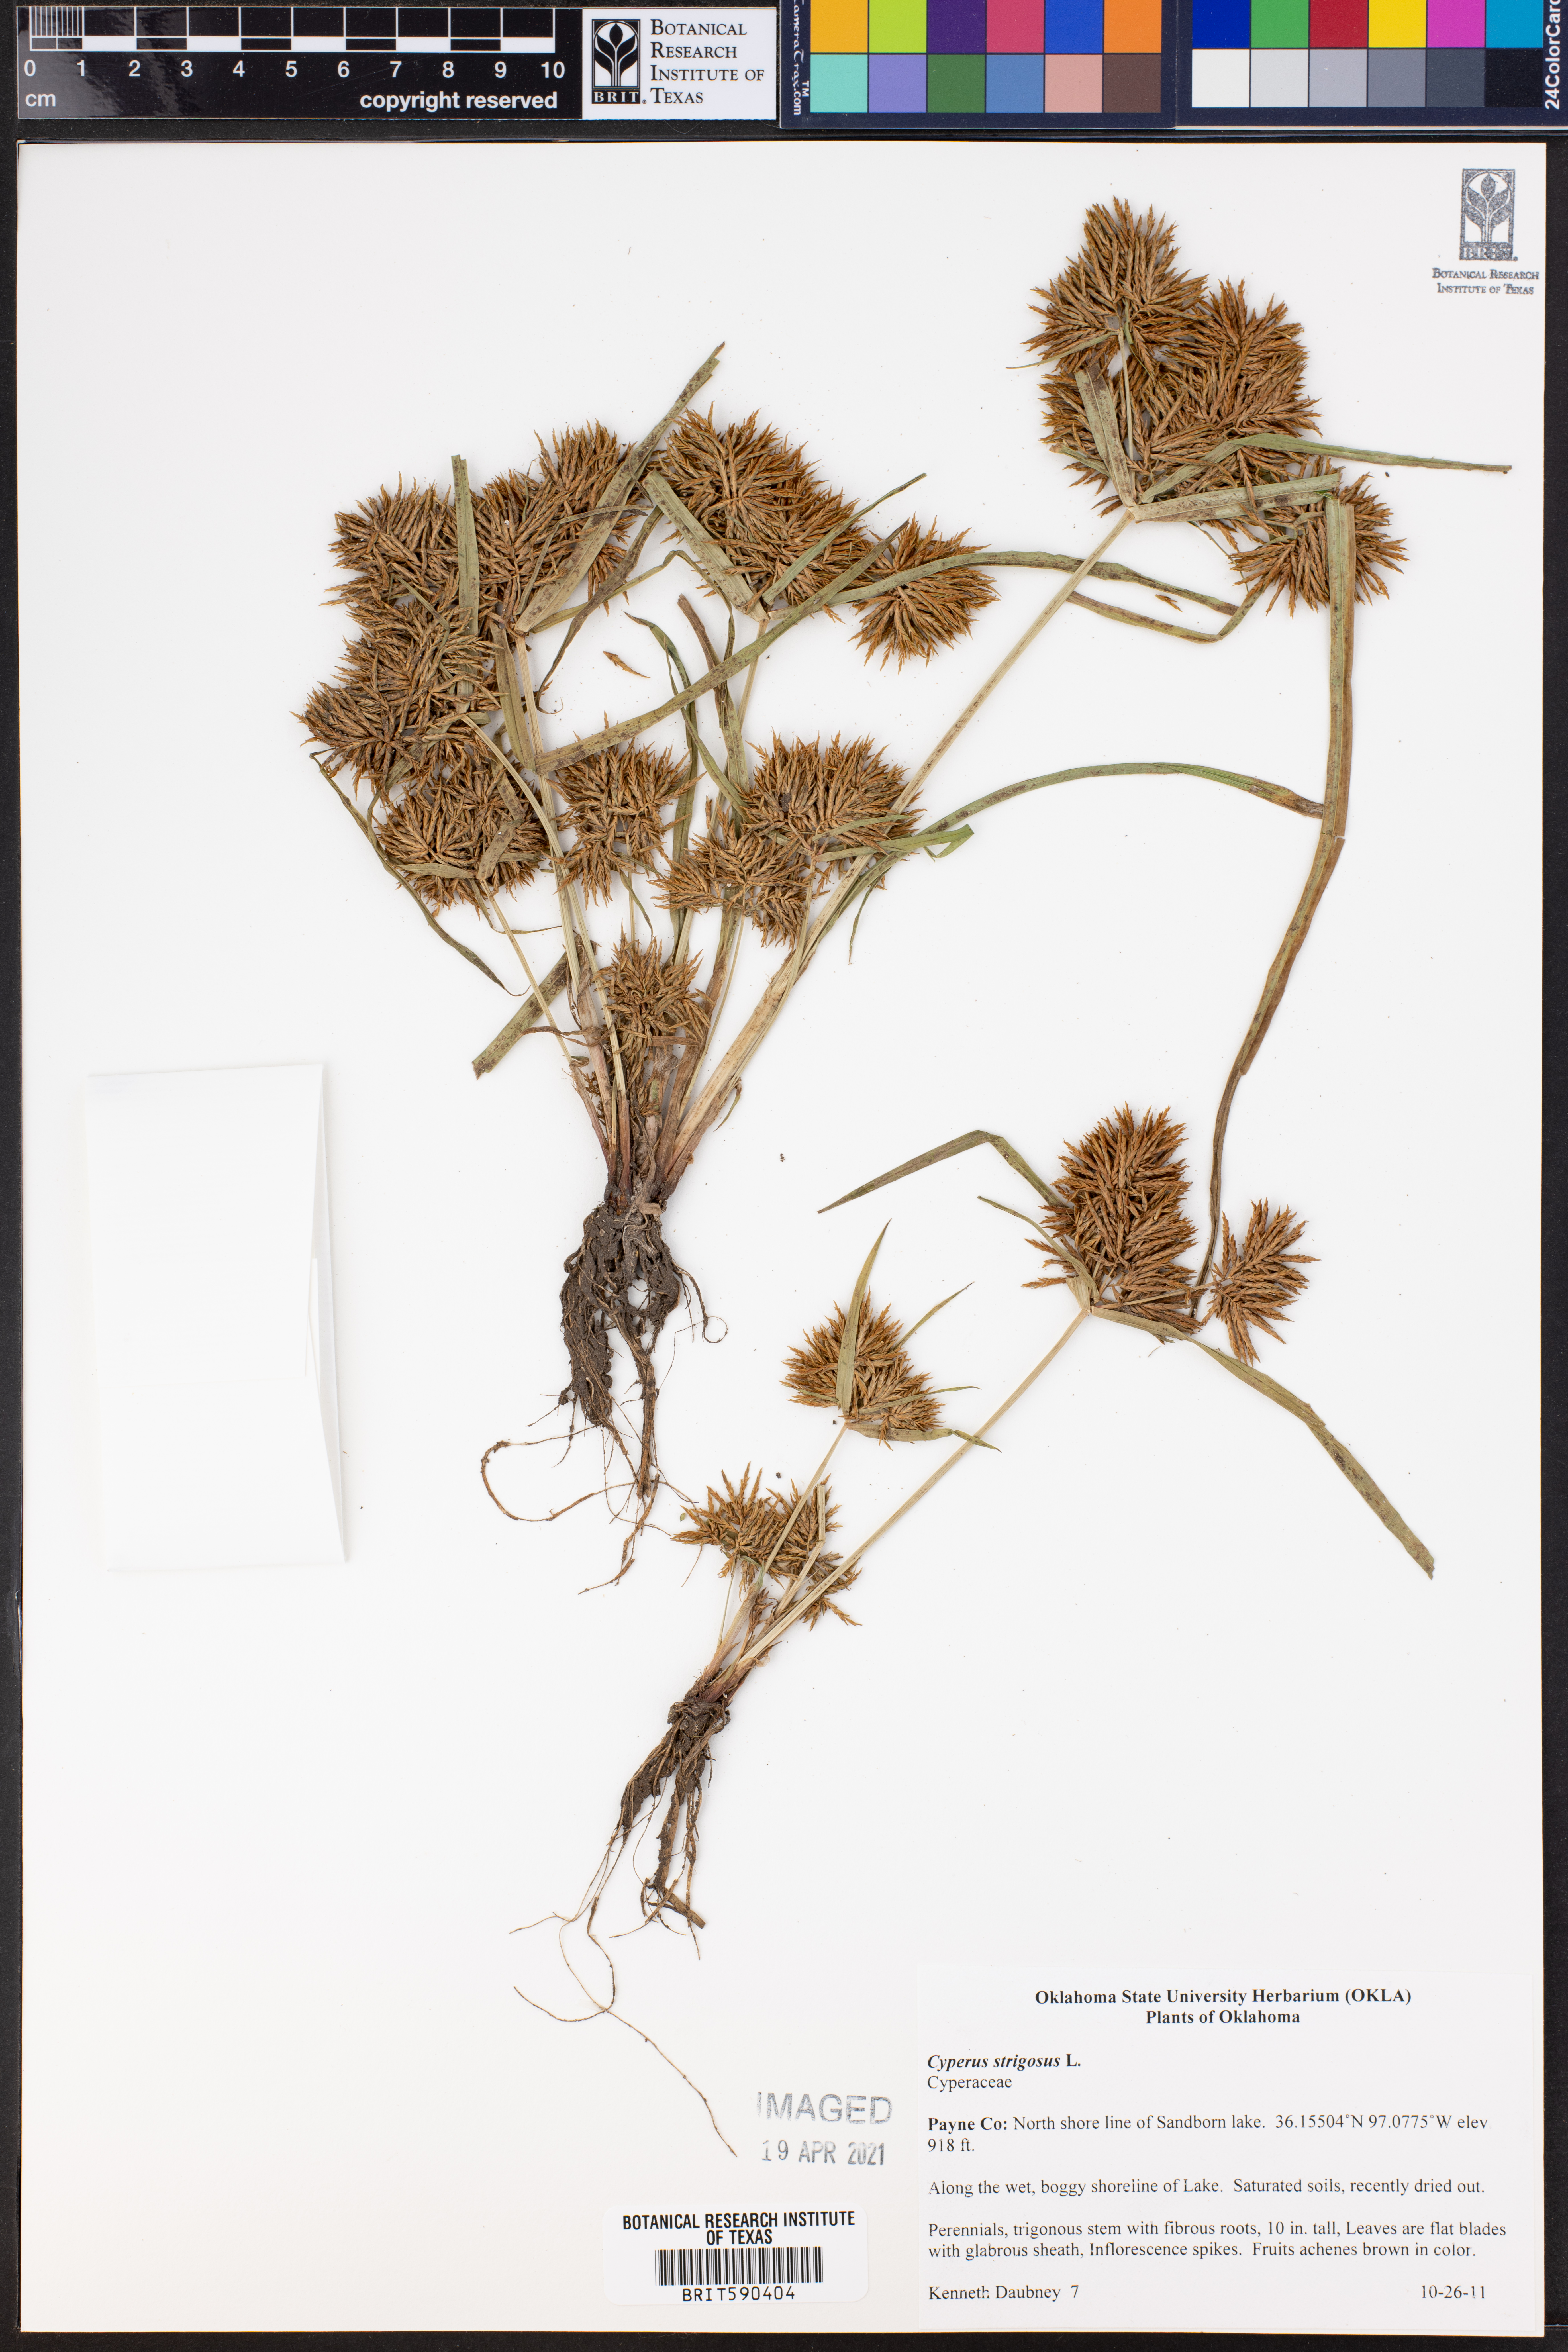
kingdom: Plantae
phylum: Tracheophyta
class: Liliopsida
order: Poales
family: Cyperaceae
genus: Cyperus
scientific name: Cyperus strigosus
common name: False nutsedge
